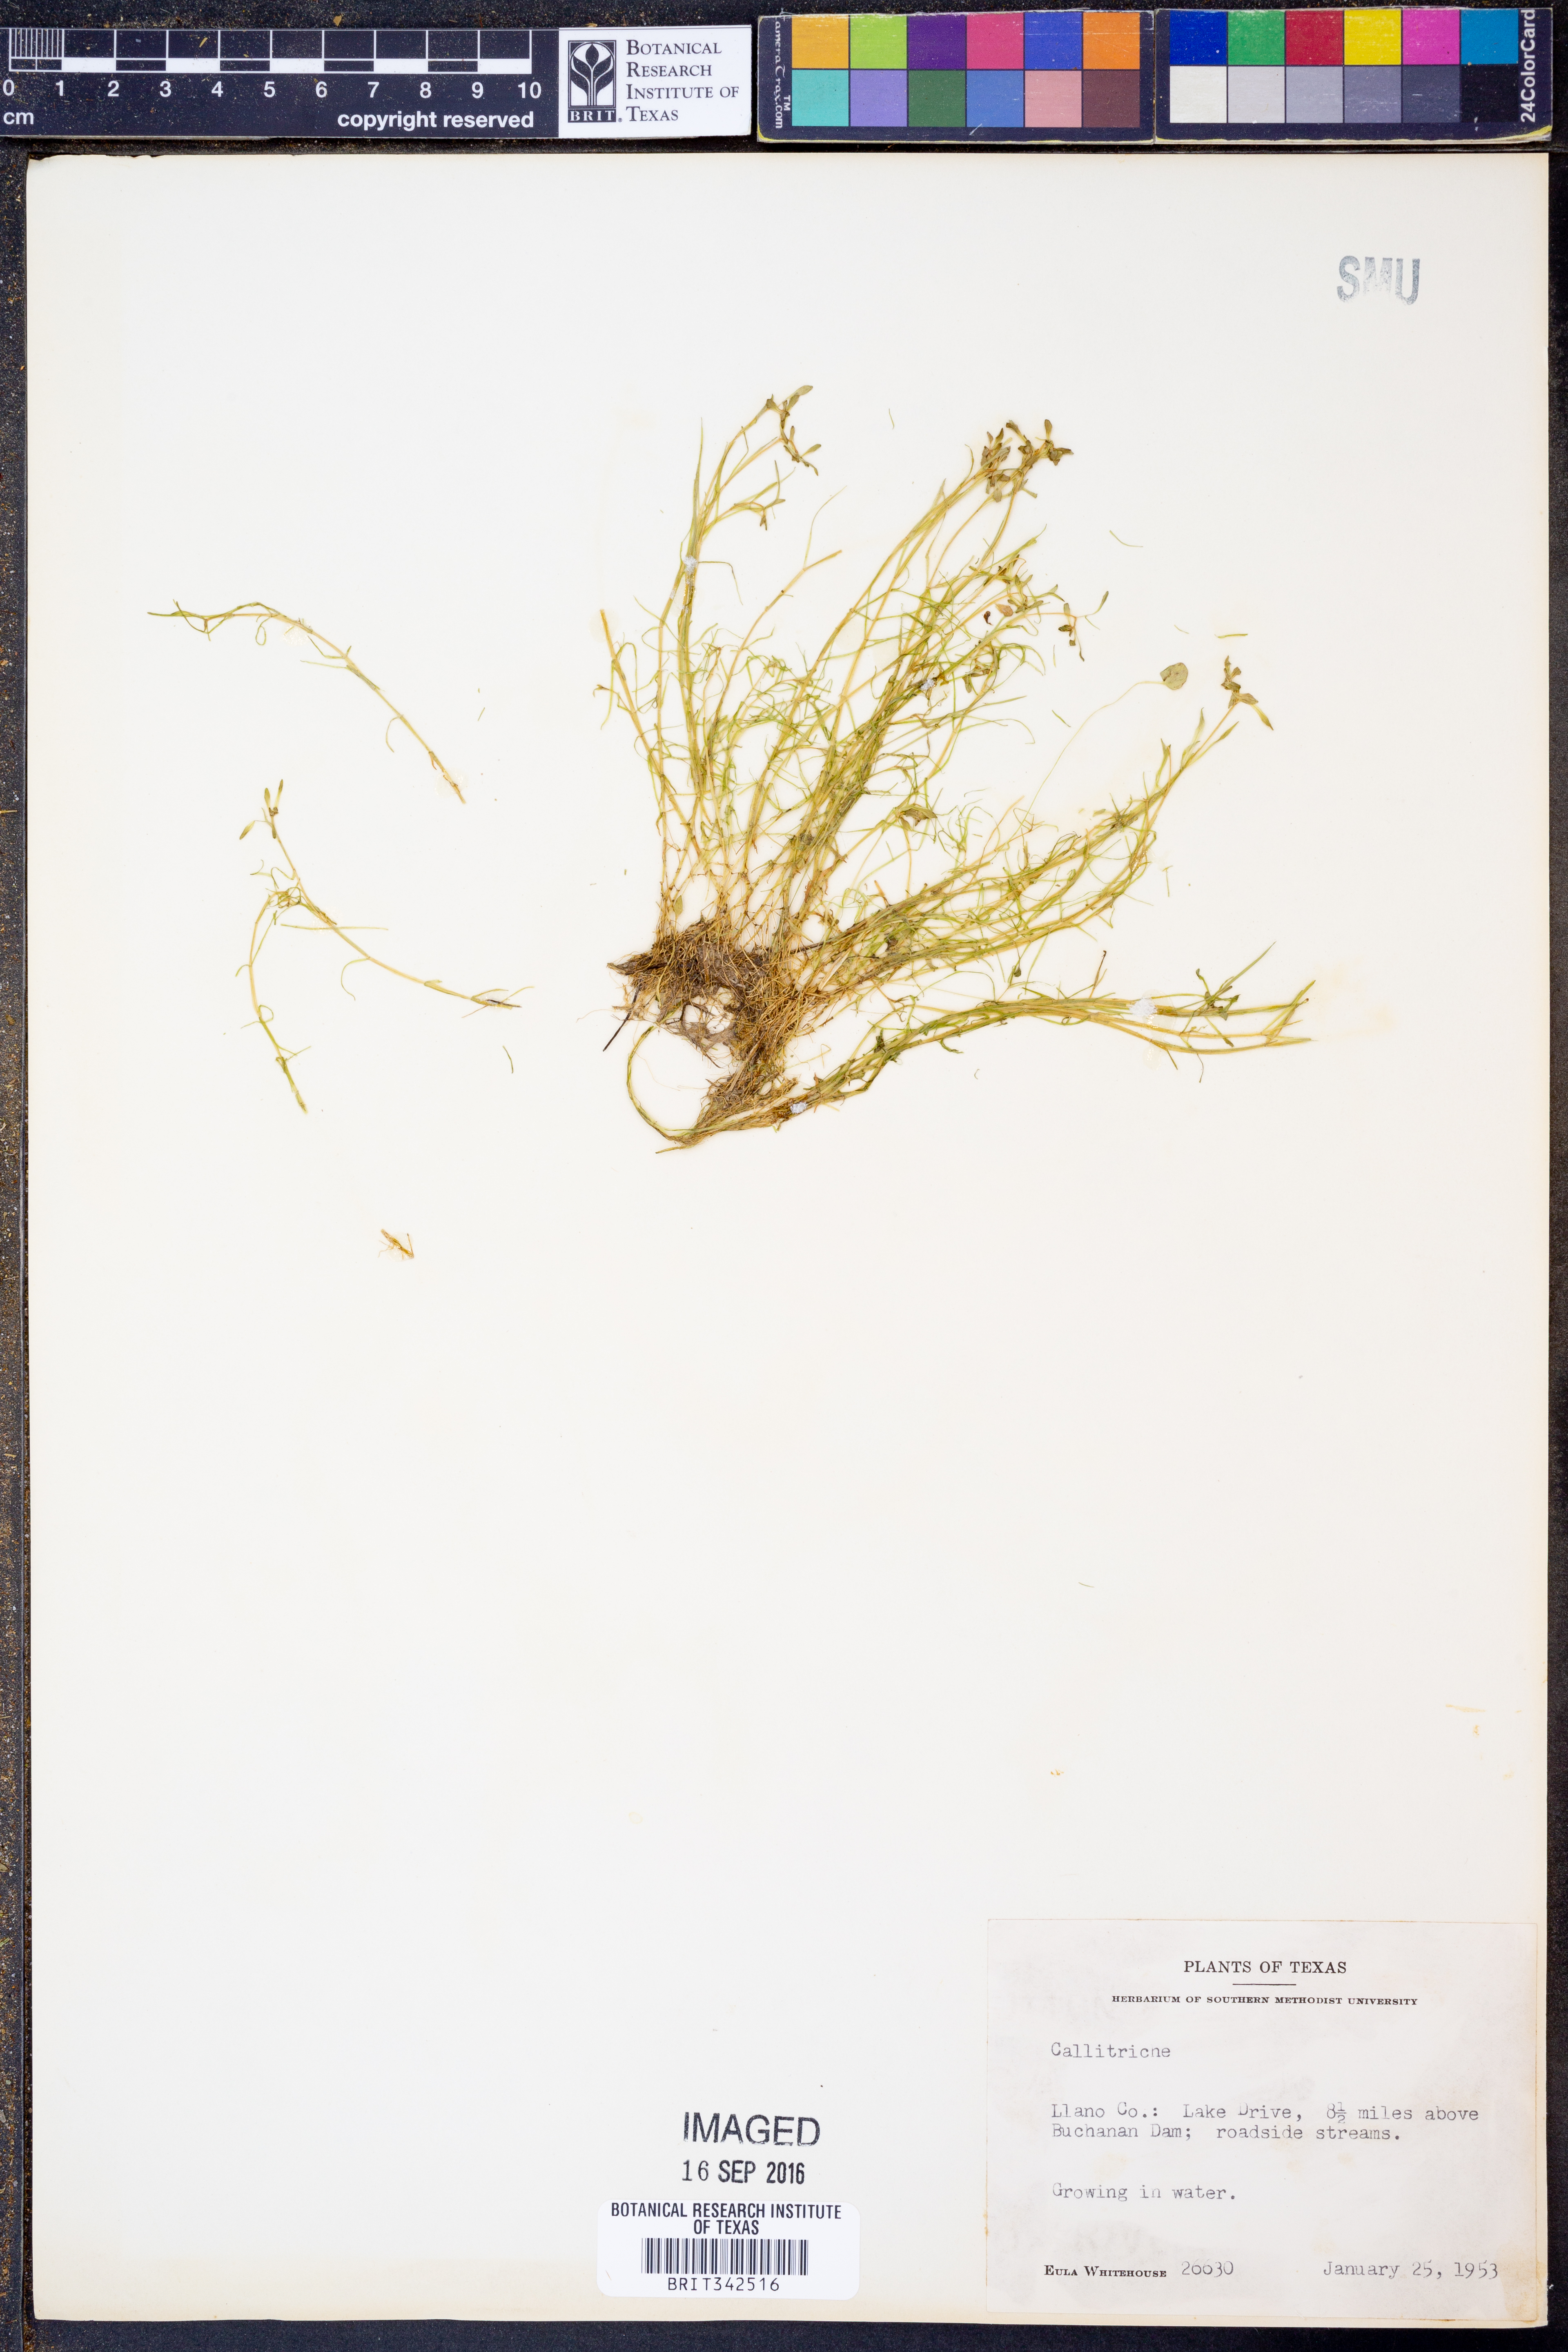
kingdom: Plantae
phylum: Tracheophyta
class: Magnoliopsida
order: Lamiales
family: Plantaginaceae
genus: Callitriche
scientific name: Callitriche
